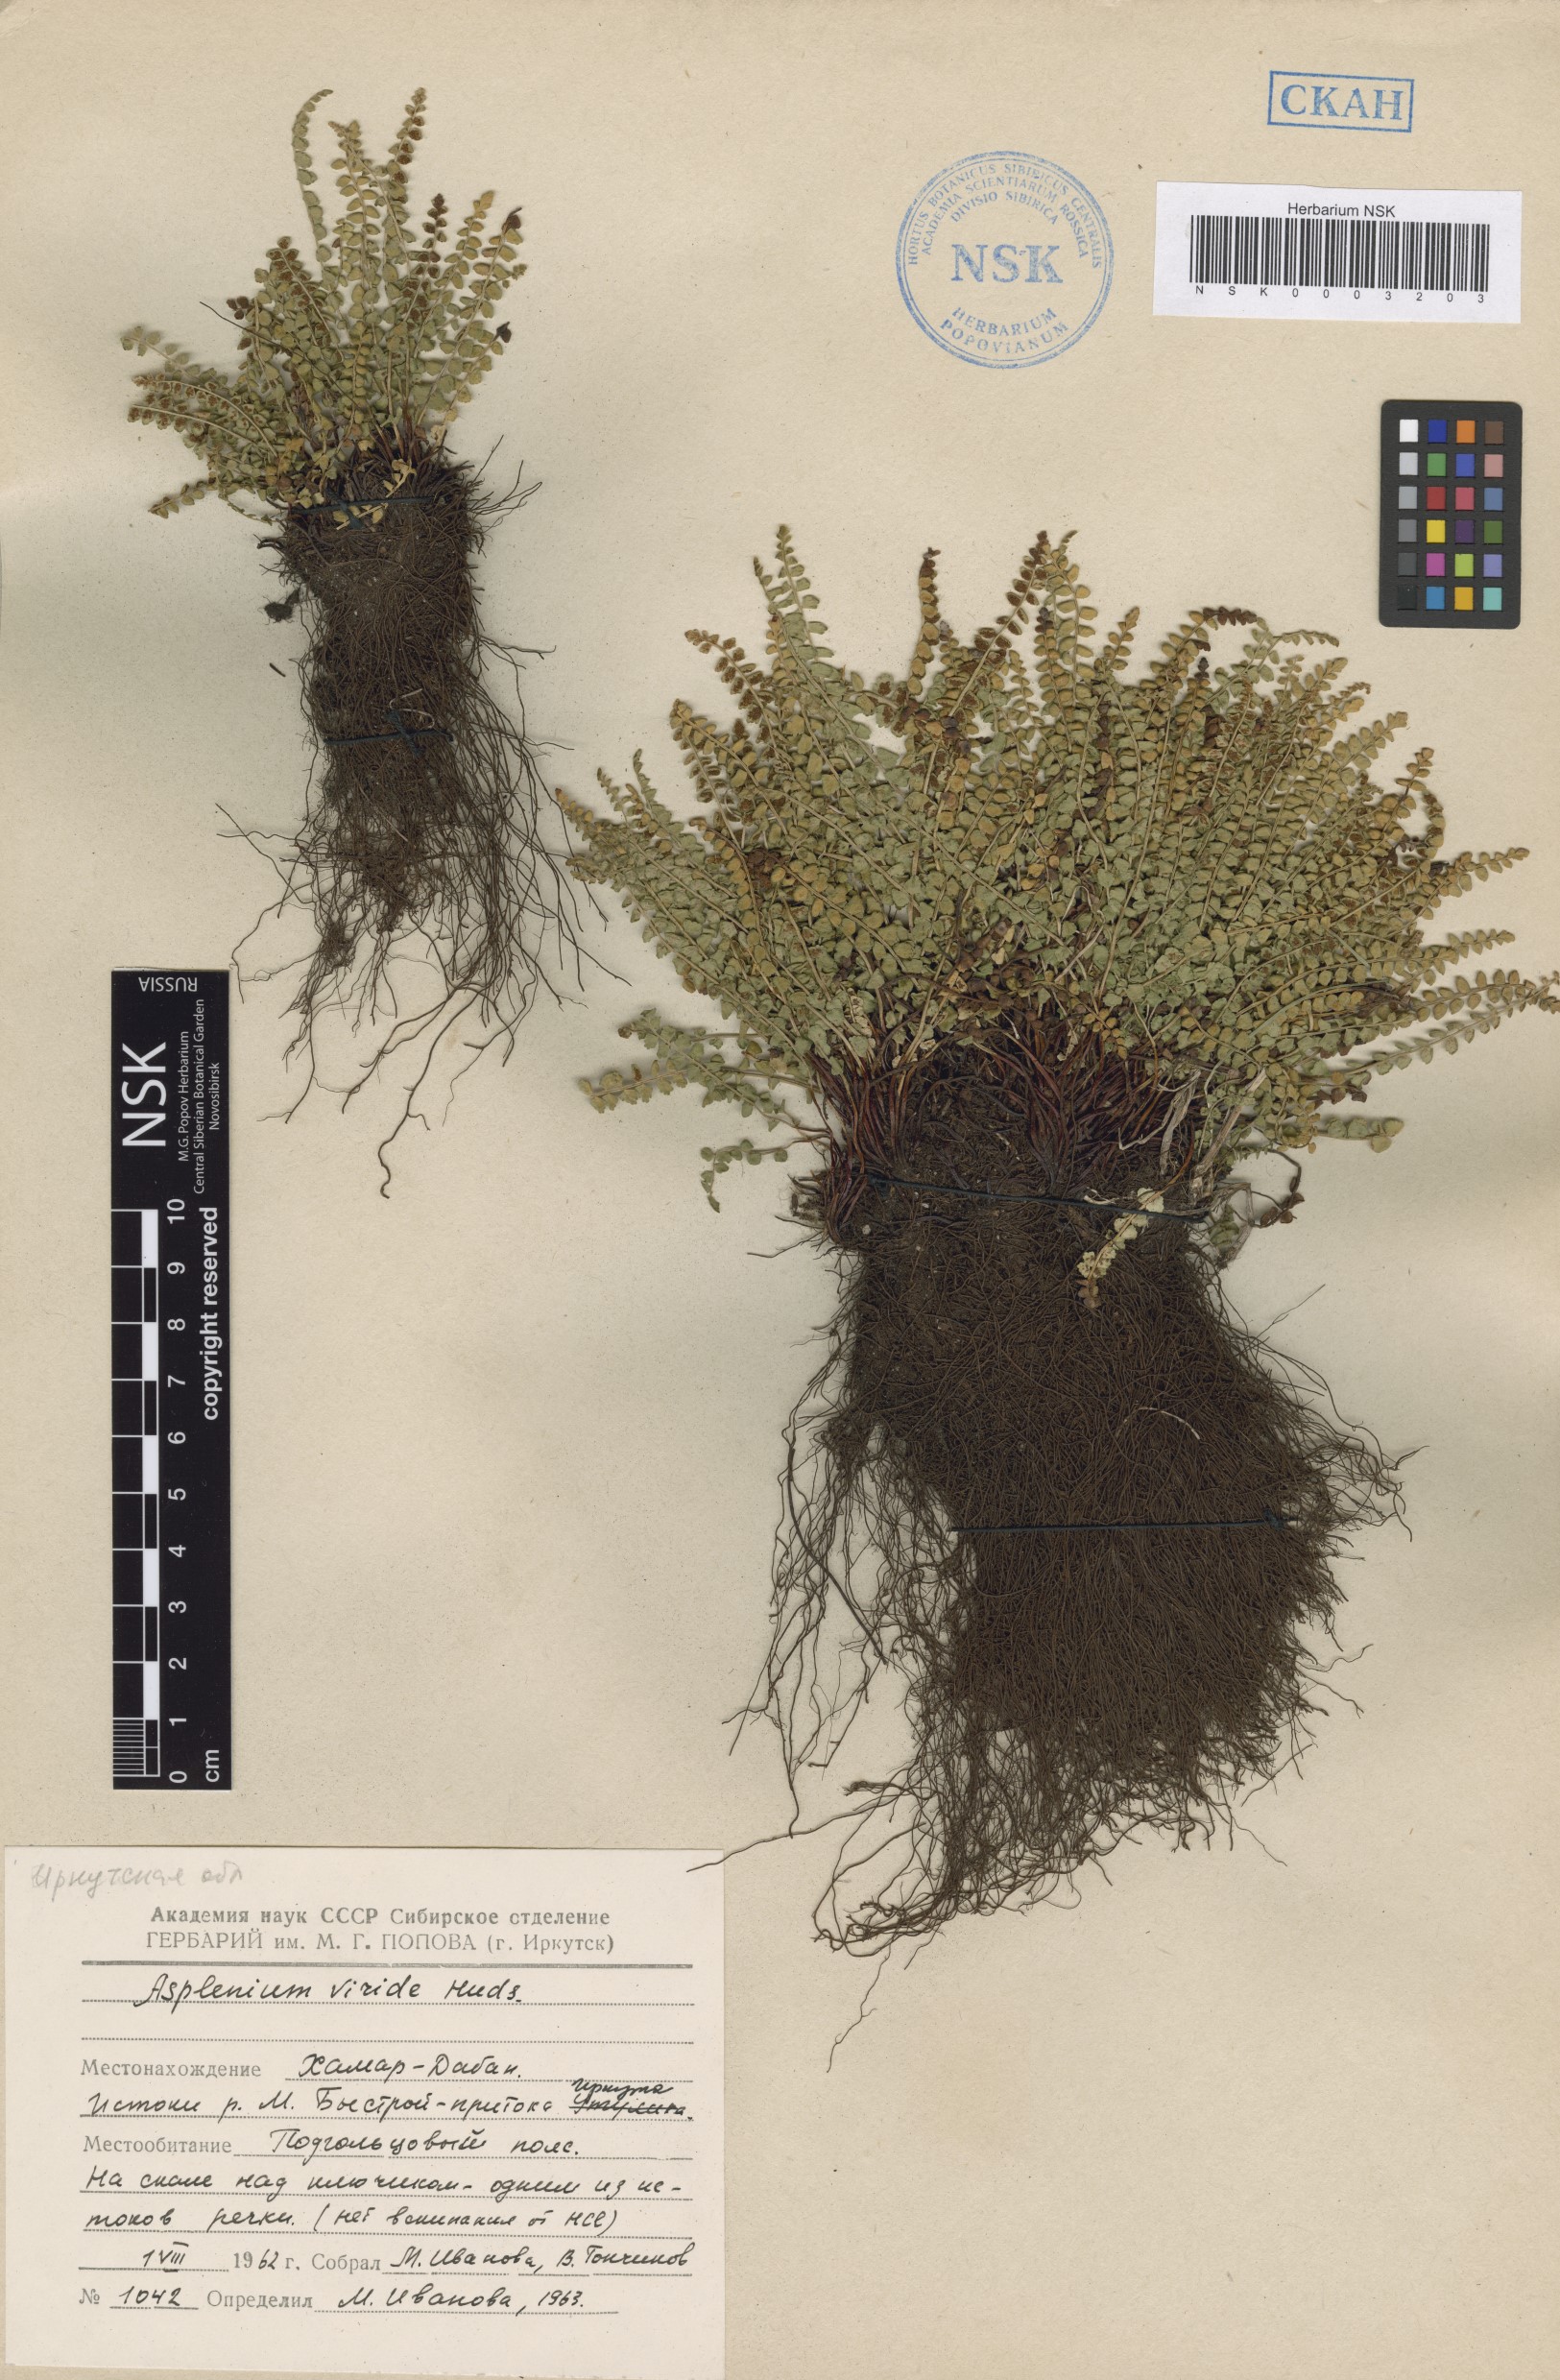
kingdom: Plantae
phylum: Tracheophyta
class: Polypodiopsida
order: Polypodiales
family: Aspleniaceae
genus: Asplenium
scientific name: Asplenium viride
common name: Green spleenwort
